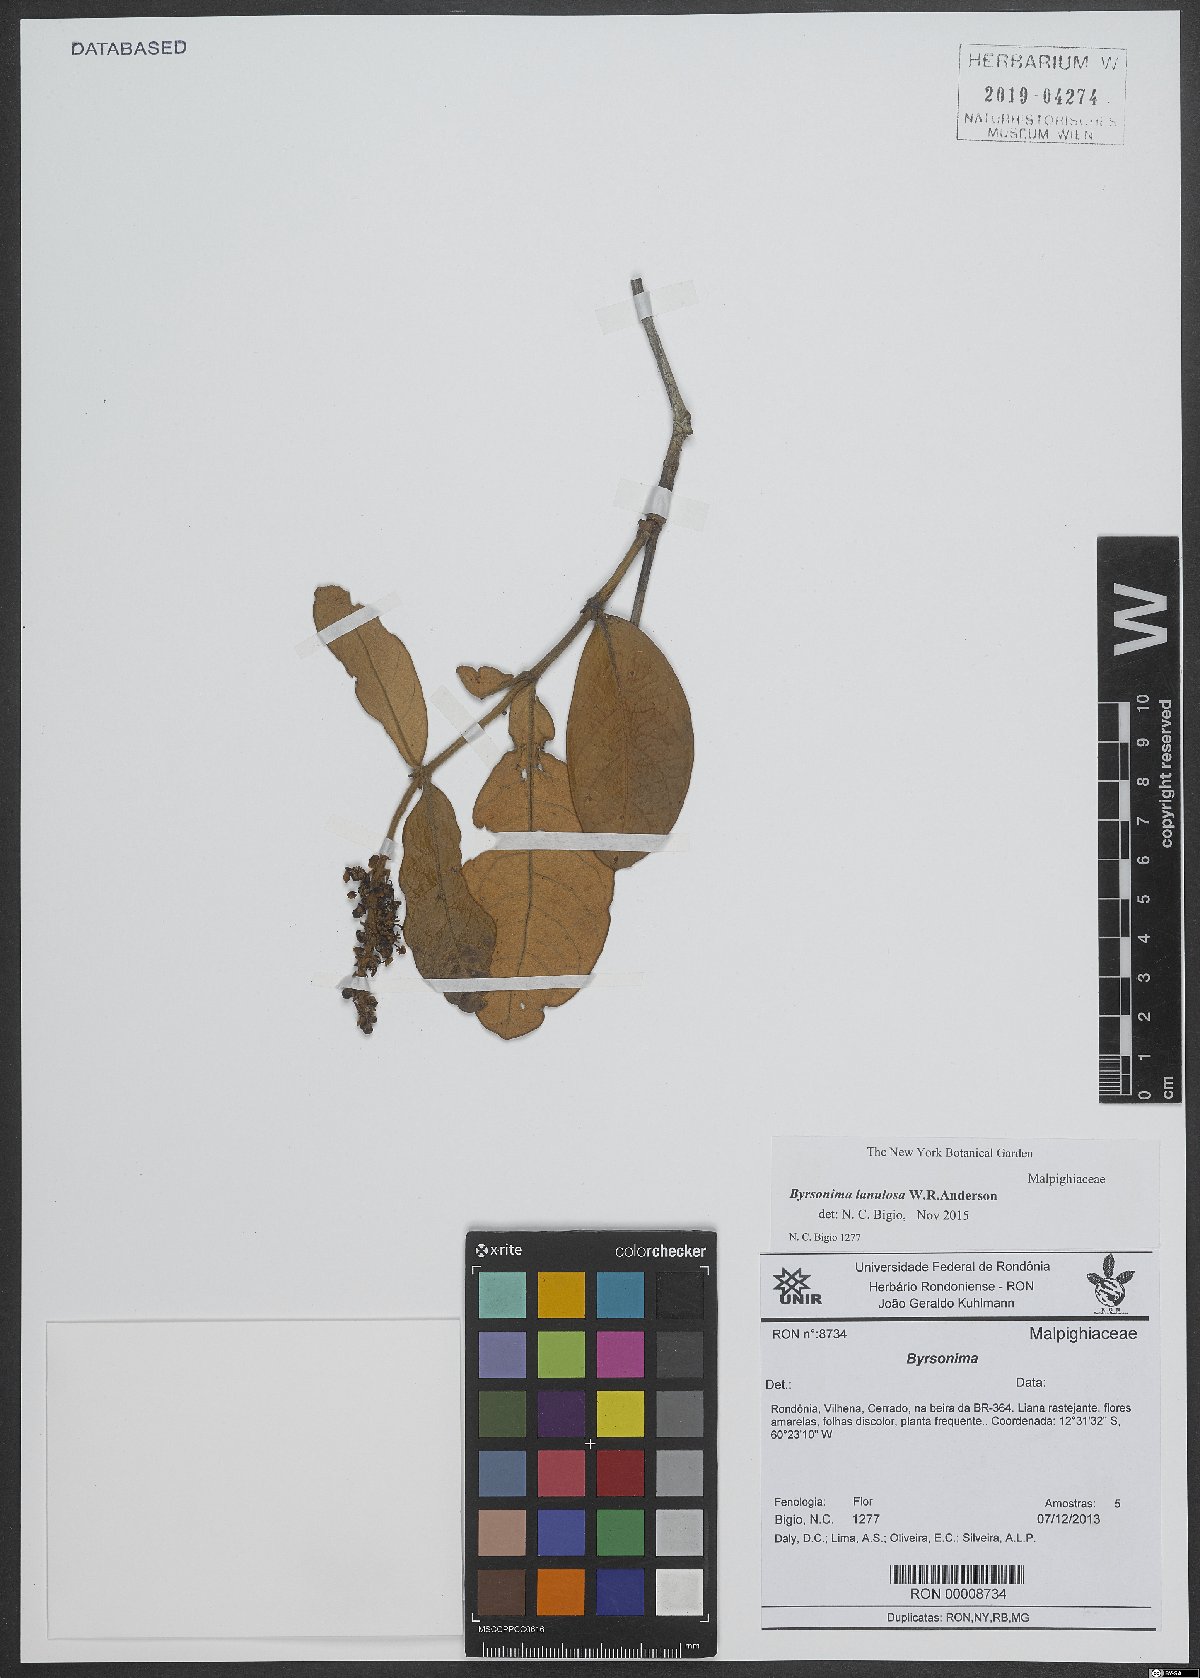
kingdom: Plantae
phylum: Tracheophyta
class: Magnoliopsida
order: Malpighiales
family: Malpighiaceae
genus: Byrsonima
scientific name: Byrsonima lanulosa
